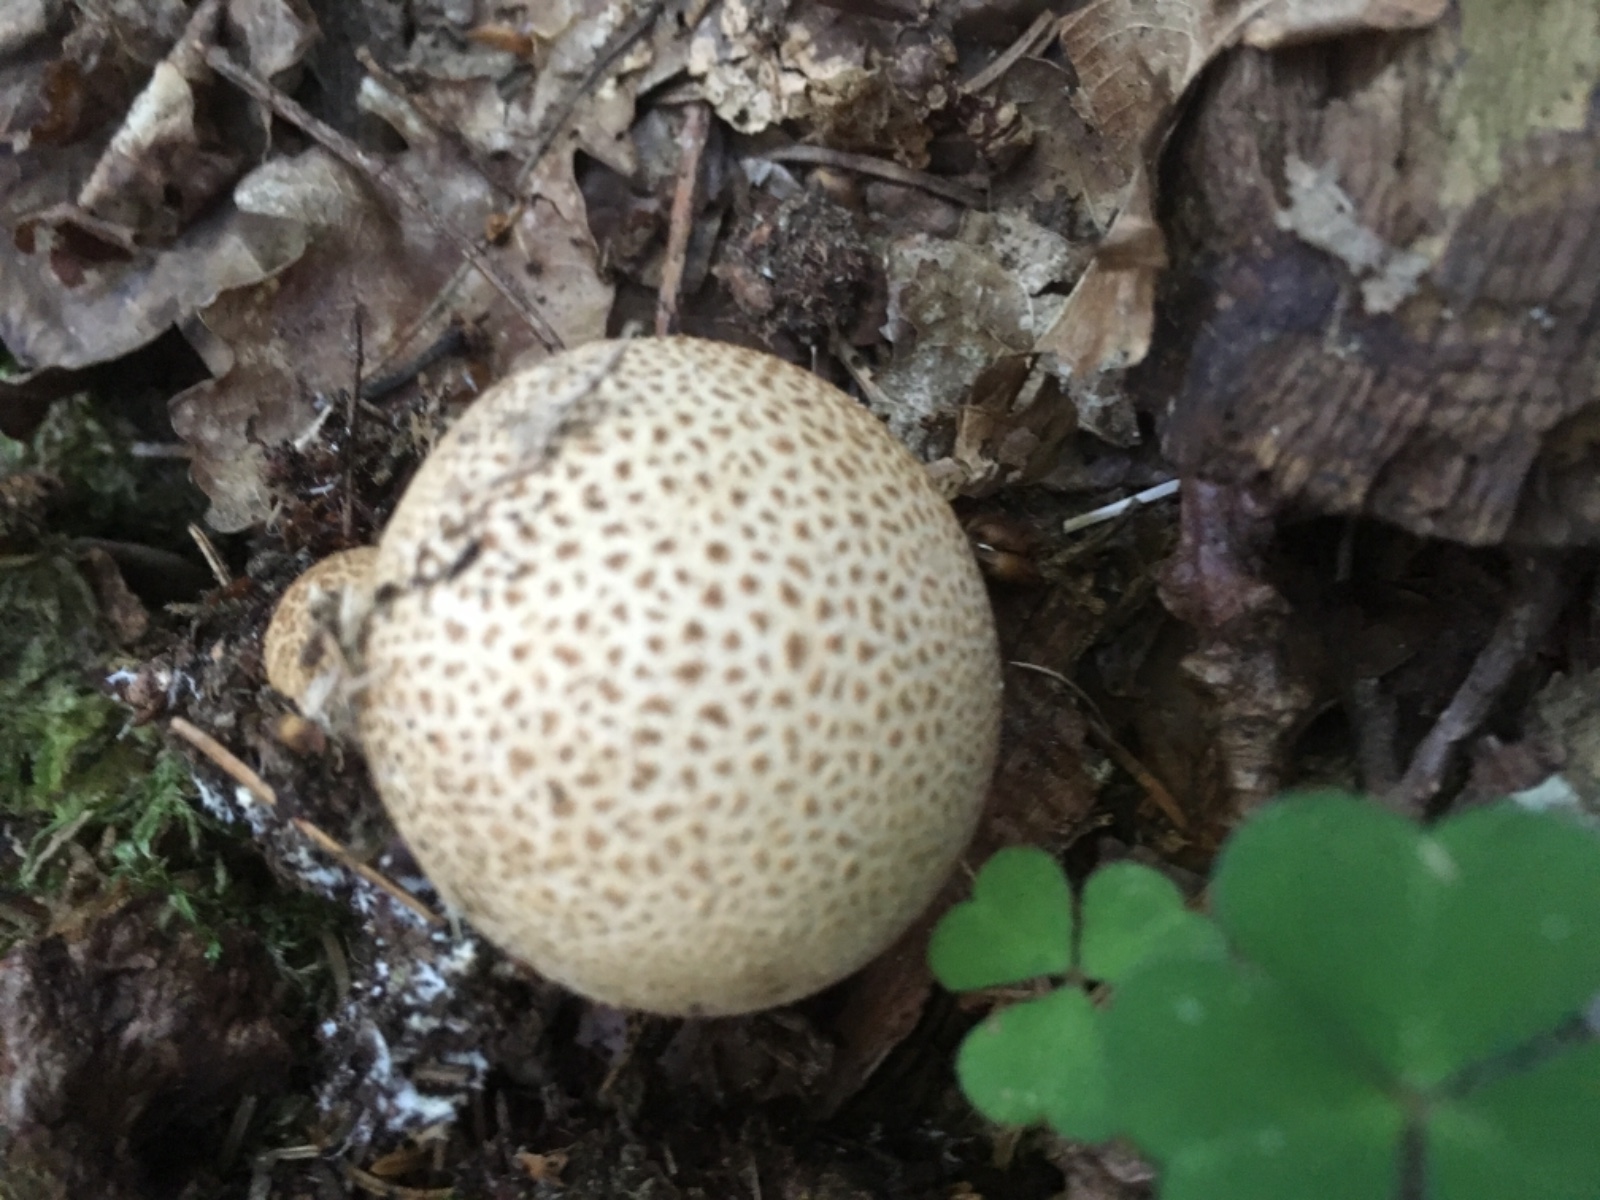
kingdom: Fungi
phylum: Basidiomycota
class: Agaricomycetes
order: Boletales
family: Sclerodermataceae
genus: Scleroderma
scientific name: Scleroderma
